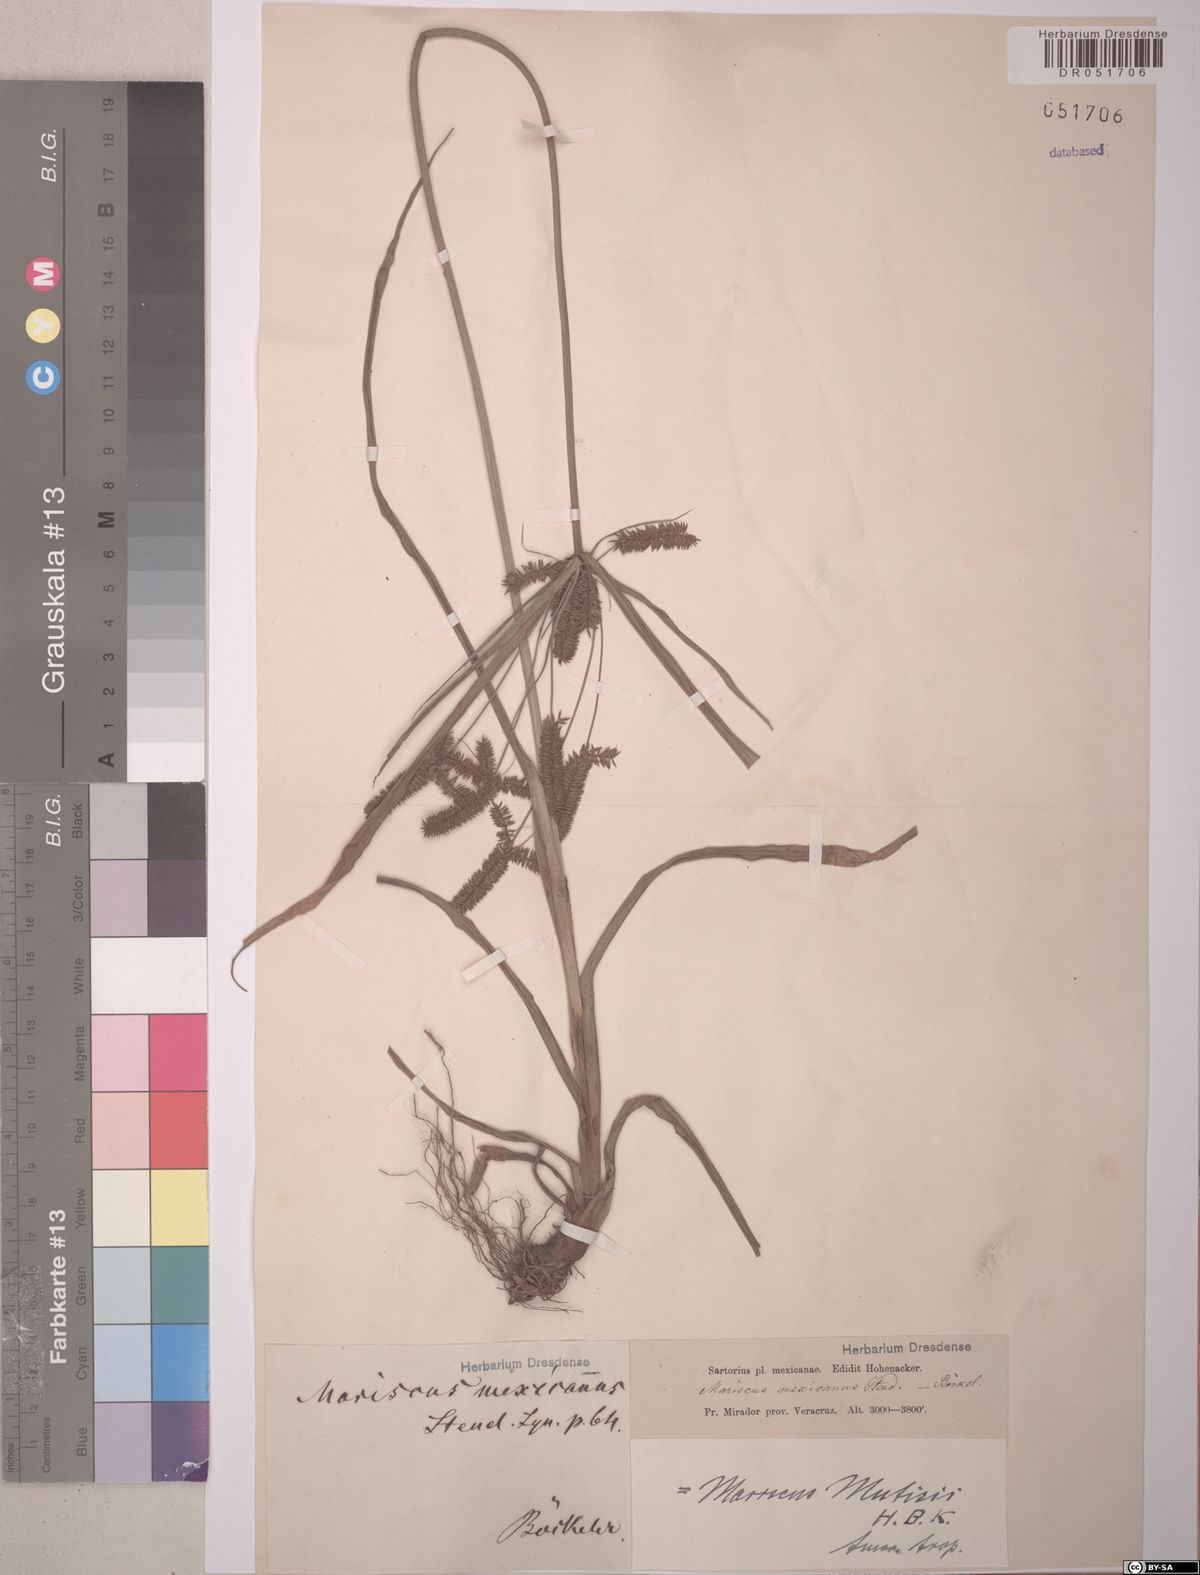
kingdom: Plantae
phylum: Tracheophyta
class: Liliopsida
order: Poales
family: Cyperaceae
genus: Cyperus
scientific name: Cyperus mutisii
